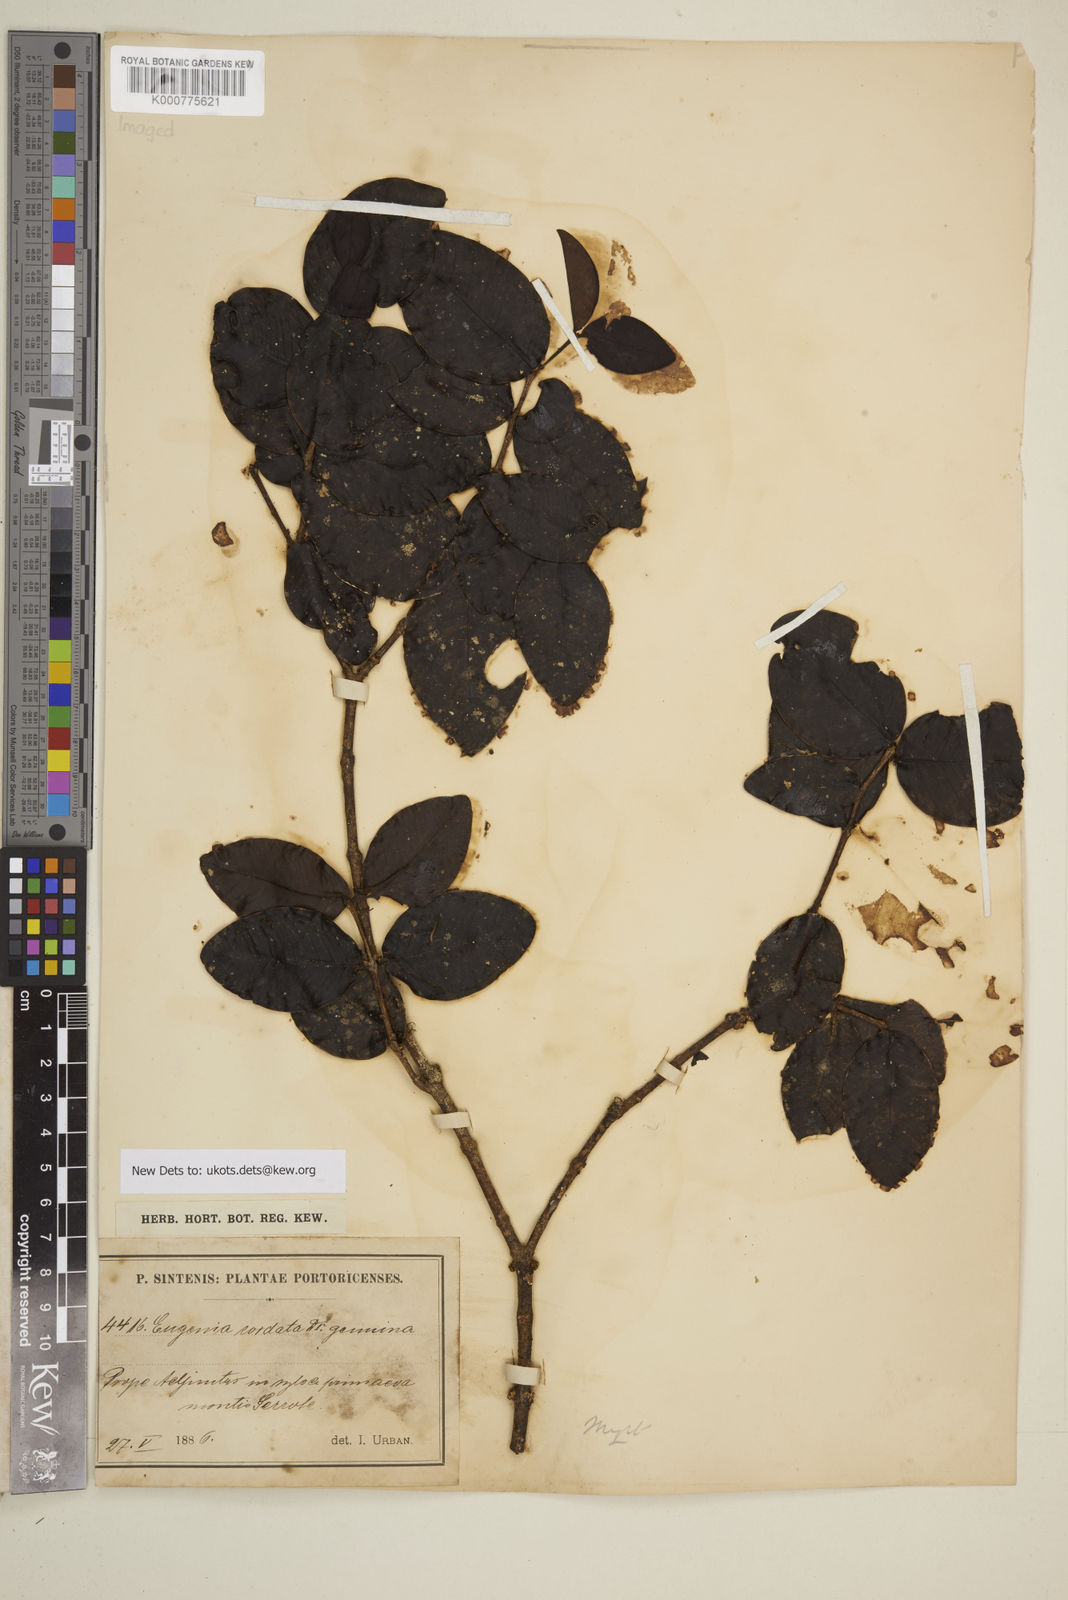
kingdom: Plantae
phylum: Tracheophyta
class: Magnoliopsida
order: Myrtales
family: Myrtaceae
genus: Eugenia
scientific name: Eugenia cordata
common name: Lathberry
